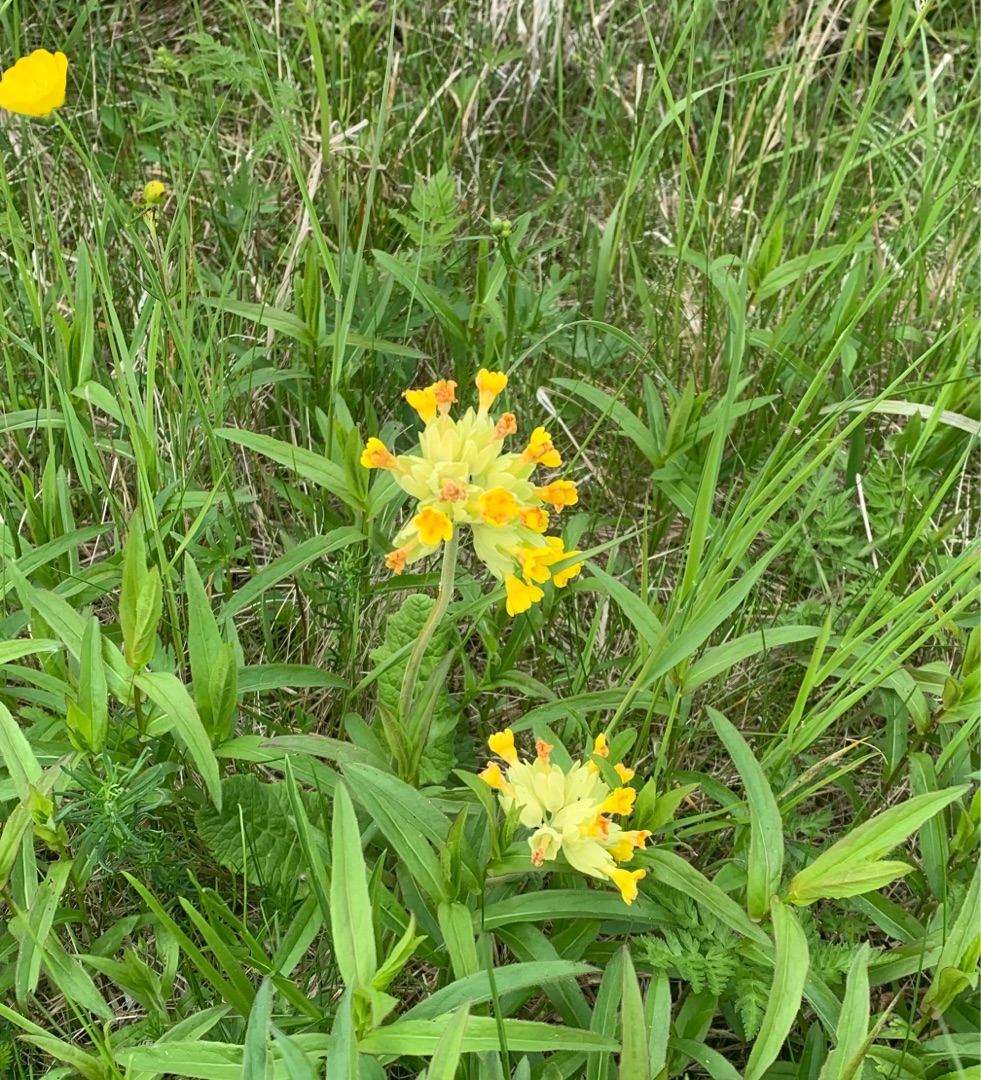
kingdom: Plantae
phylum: Tracheophyta
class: Magnoliopsida
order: Ericales
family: Primulaceae
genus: Primula
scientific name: Primula veris
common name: Hulkravet kodriver
